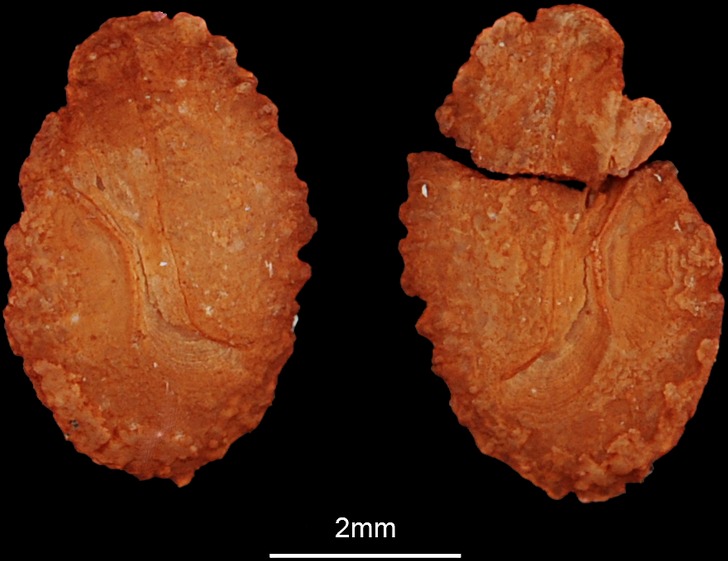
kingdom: Animalia
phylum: Chordata
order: Perciformes
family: Cichlidae
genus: Sarotherodon
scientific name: Sarotherodon galilaeus
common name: Mango tilapia
